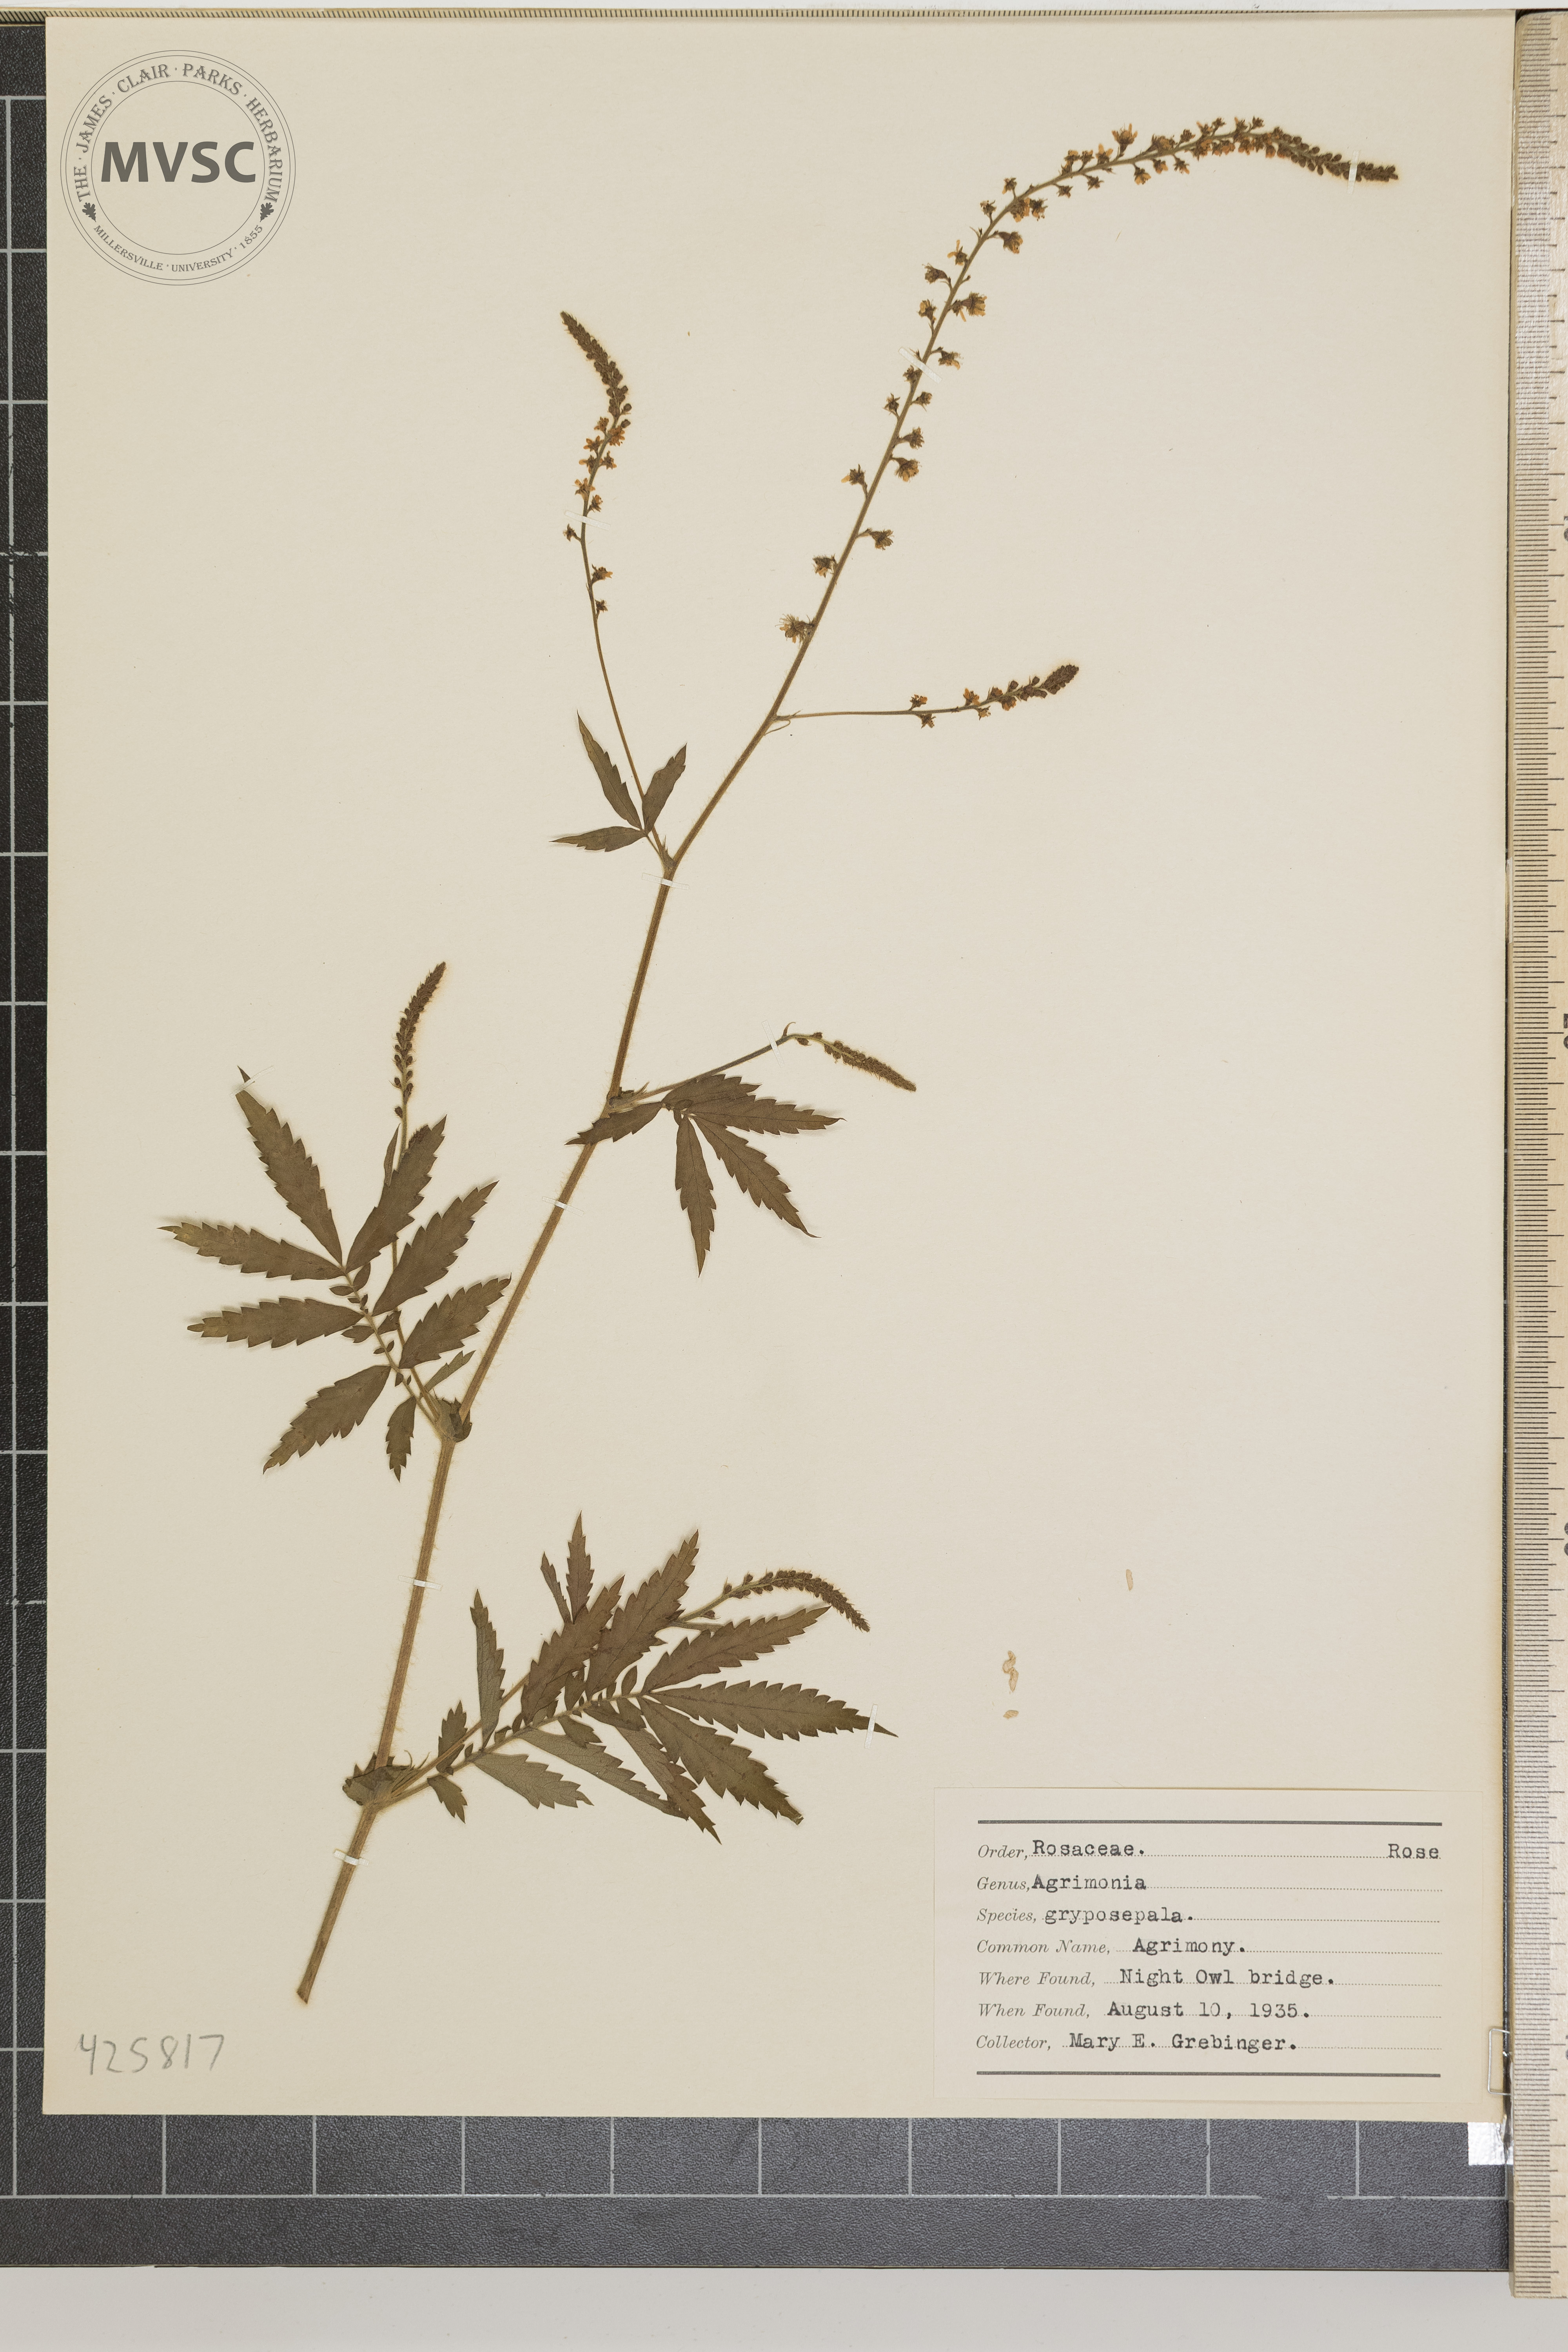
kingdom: Plantae
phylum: Tracheophyta
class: Magnoliopsida
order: Rosales
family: Rosaceae
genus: Agrimonia
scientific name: Agrimonia gryposepala
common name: Agrimony
